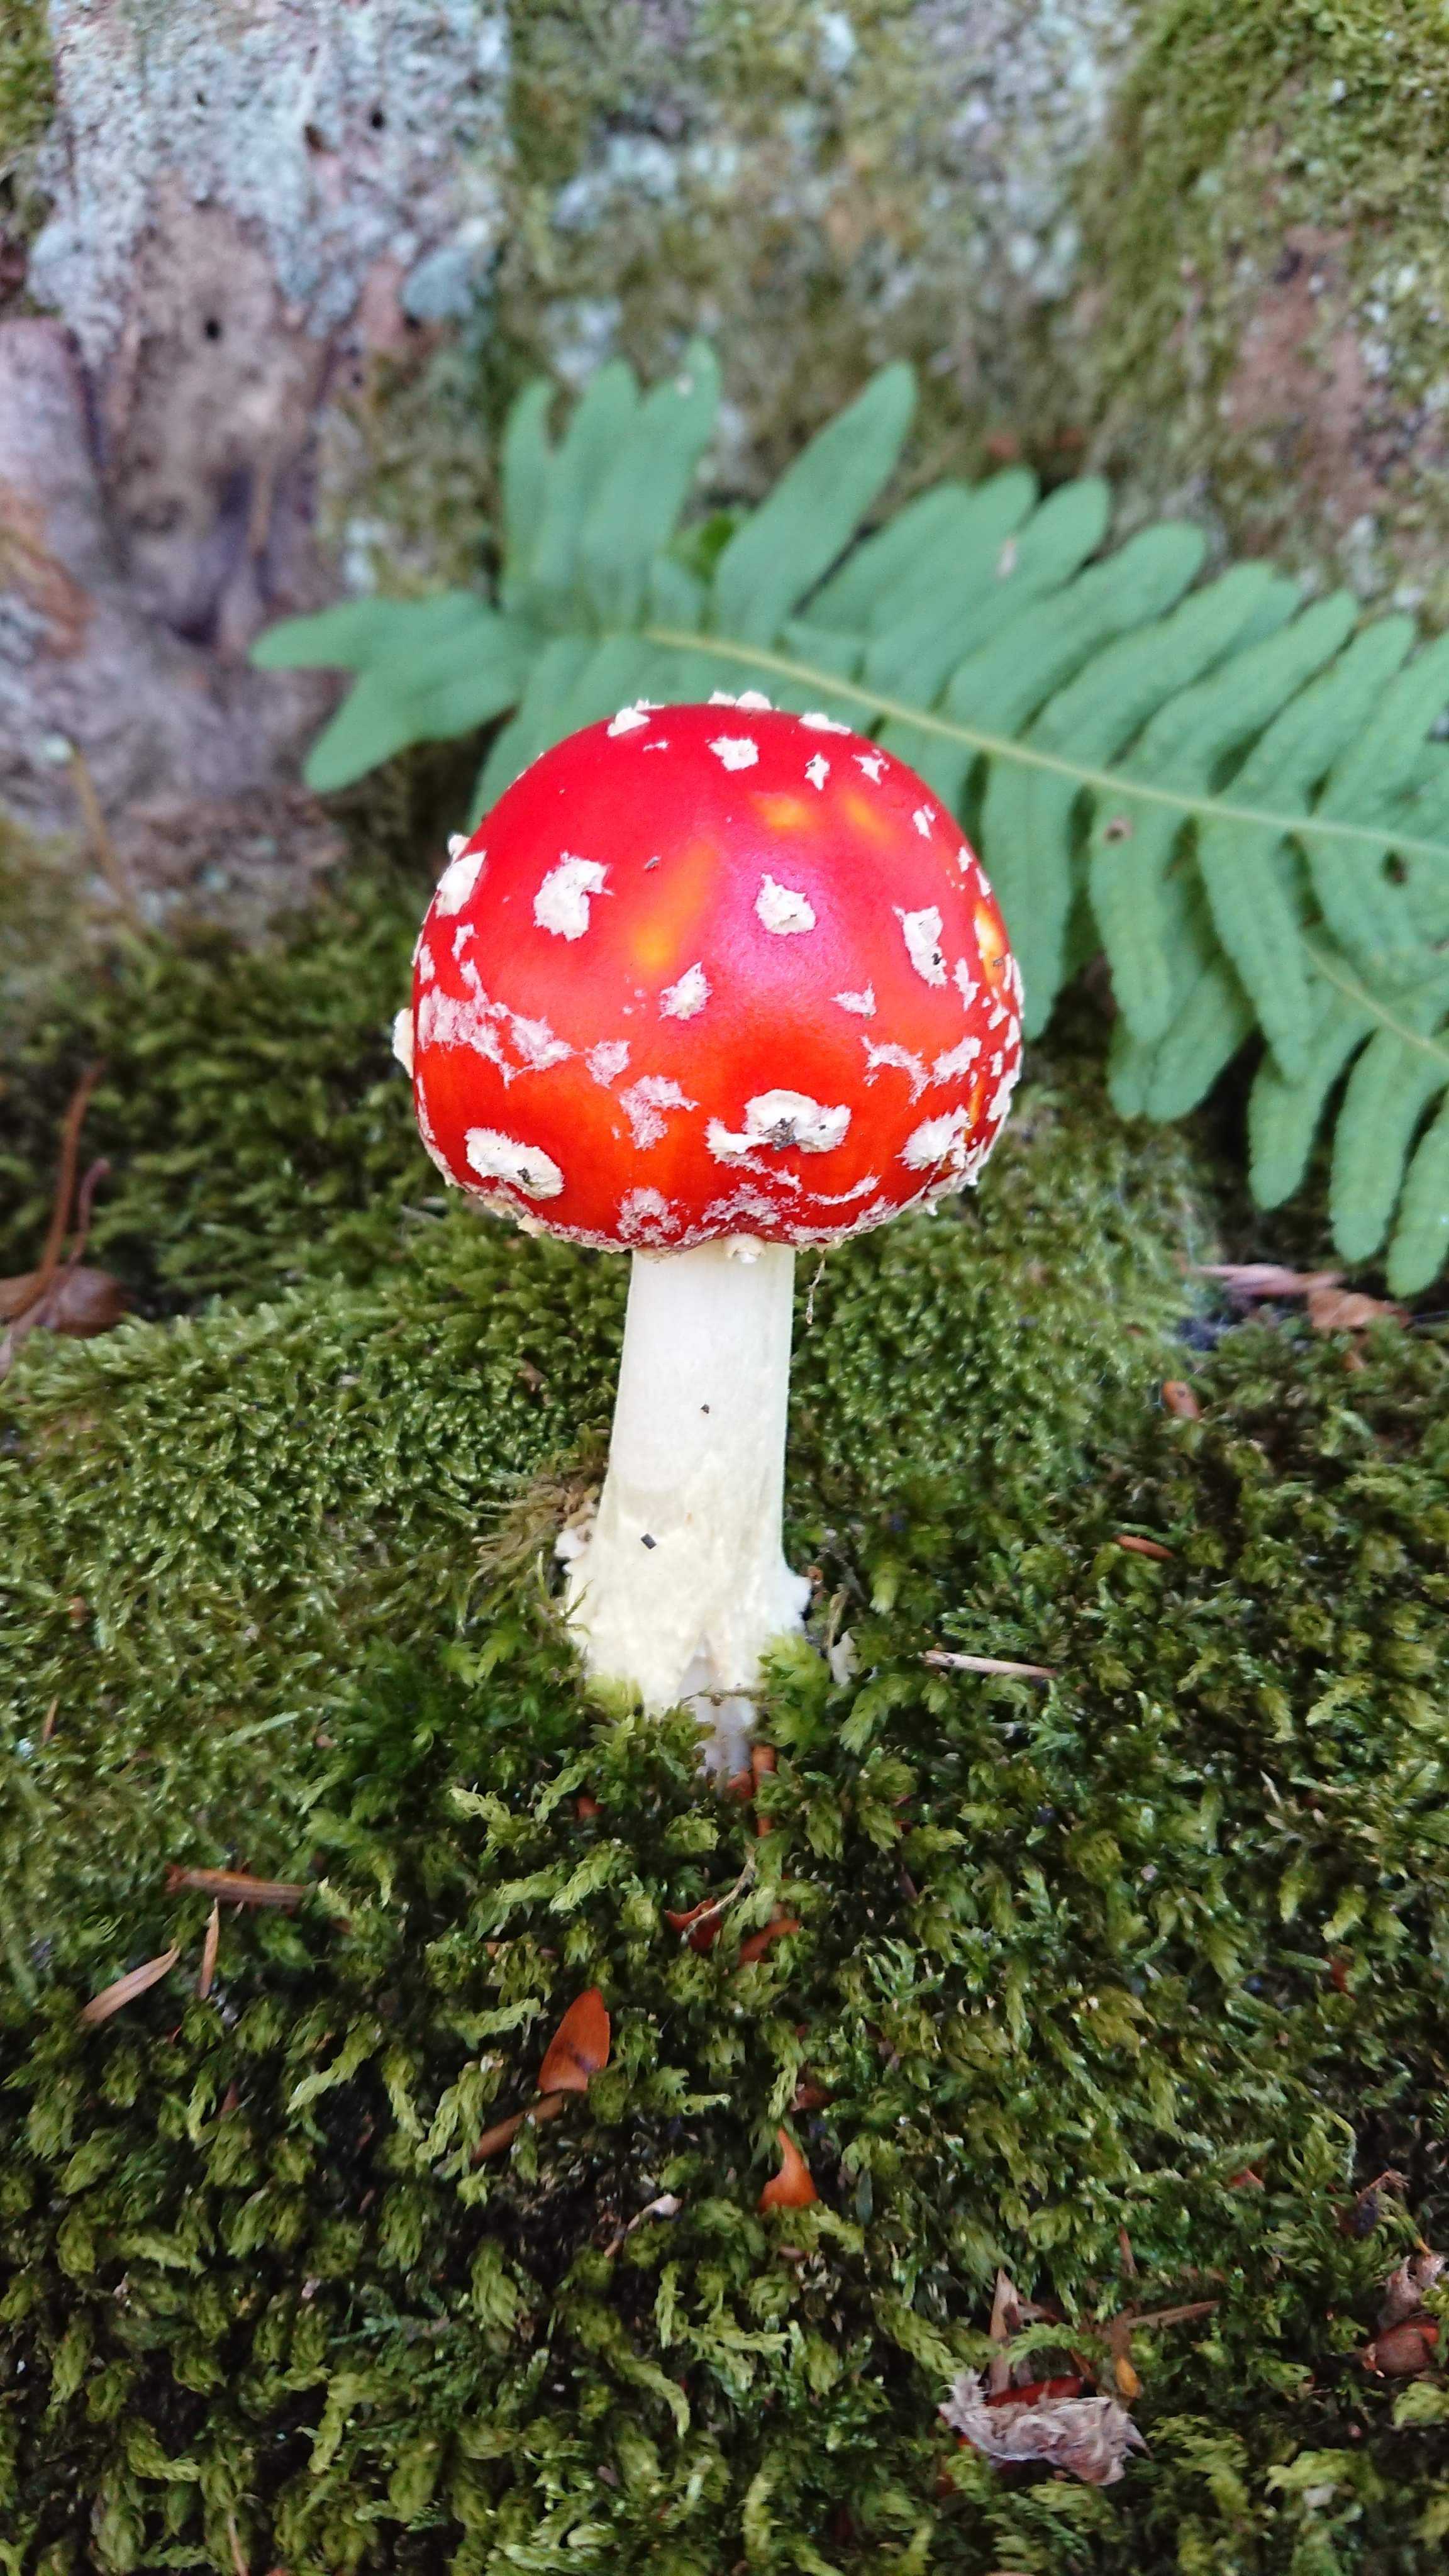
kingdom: Fungi
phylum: Basidiomycota
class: Agaricomycetes
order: Agaricales
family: Amanitaceae
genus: Amanita
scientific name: Amanita muscaria
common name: rød fluesvamp
